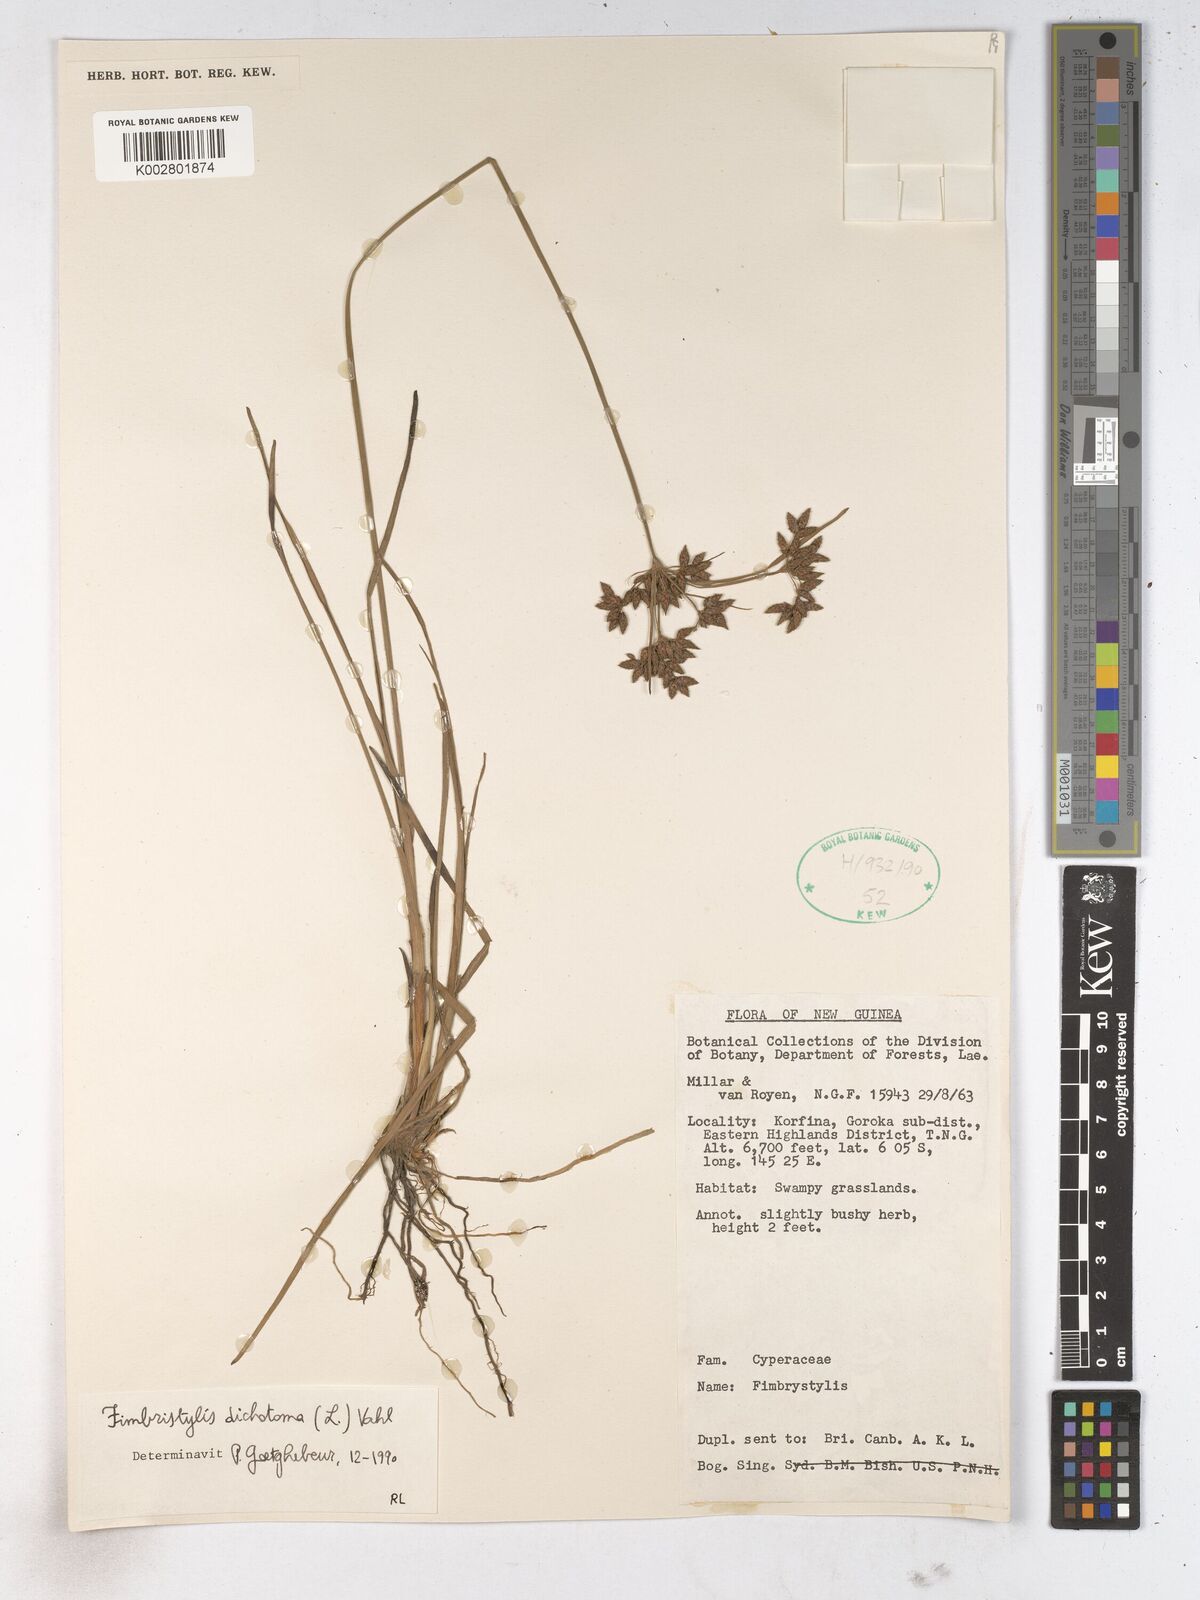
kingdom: Plantae
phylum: Tracheophyta
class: Liliopsida
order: Poales
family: Cyperaceae
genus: Fimbristylis
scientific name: Fimbristylis dichotoma
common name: Forked fimbry
